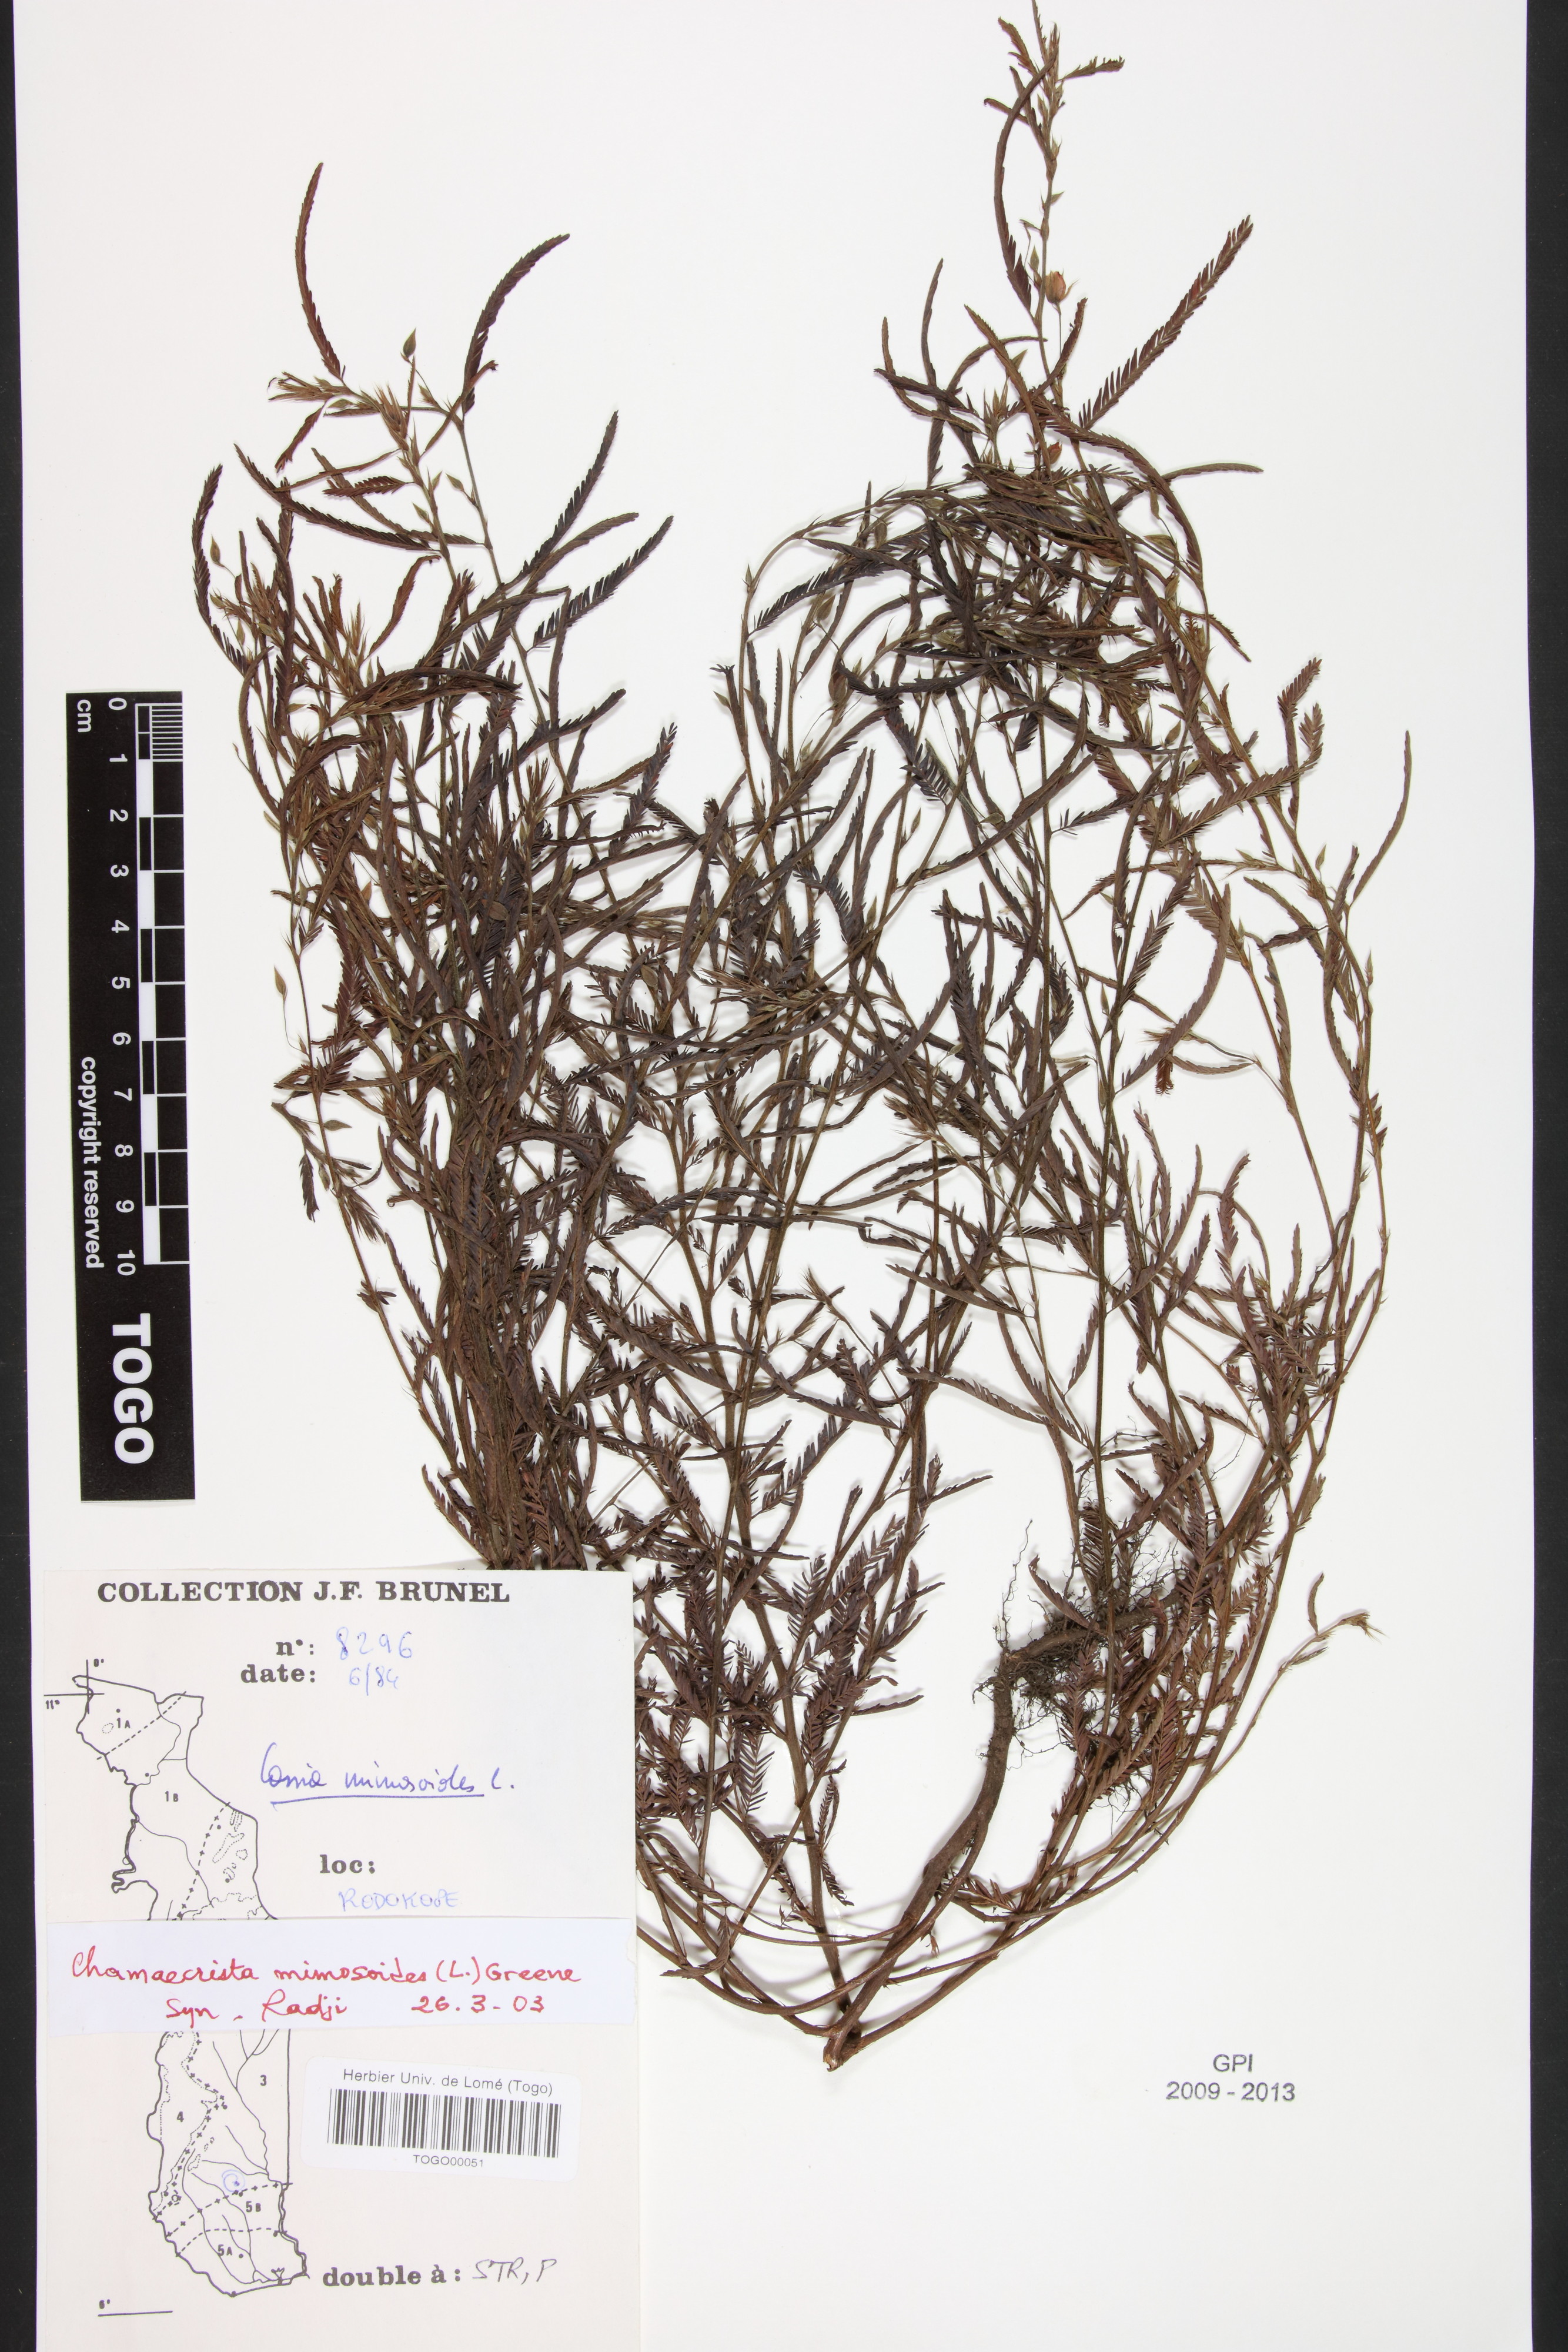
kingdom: Plantae
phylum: Tracheophyta
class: Magnoliopsida
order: Fabales
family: Fabaceae
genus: Chamaecrista
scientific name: Chamaecrista mimosoides
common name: Fish-bone cassia
